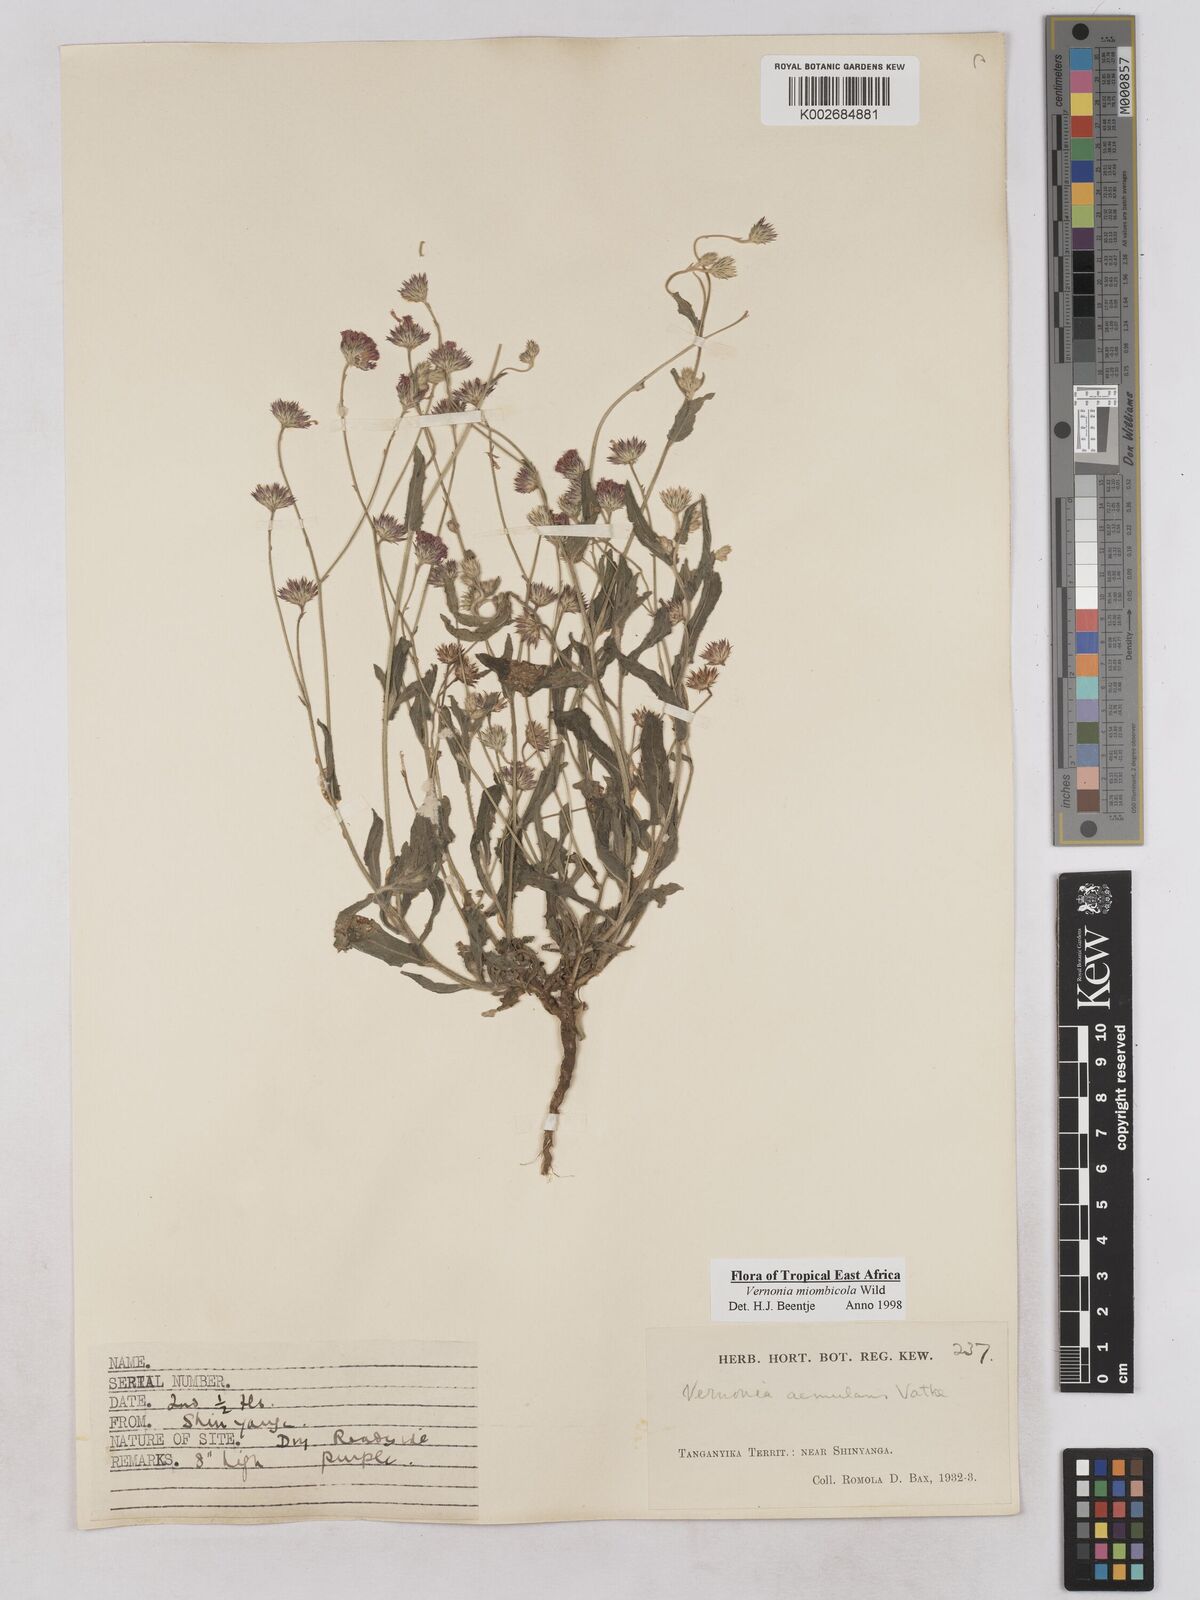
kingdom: Plantae
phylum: Tracheophyta
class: Magnoliopsida
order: Asterales
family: Asteraceae
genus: Vernonia
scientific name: Vernonia miombicola
